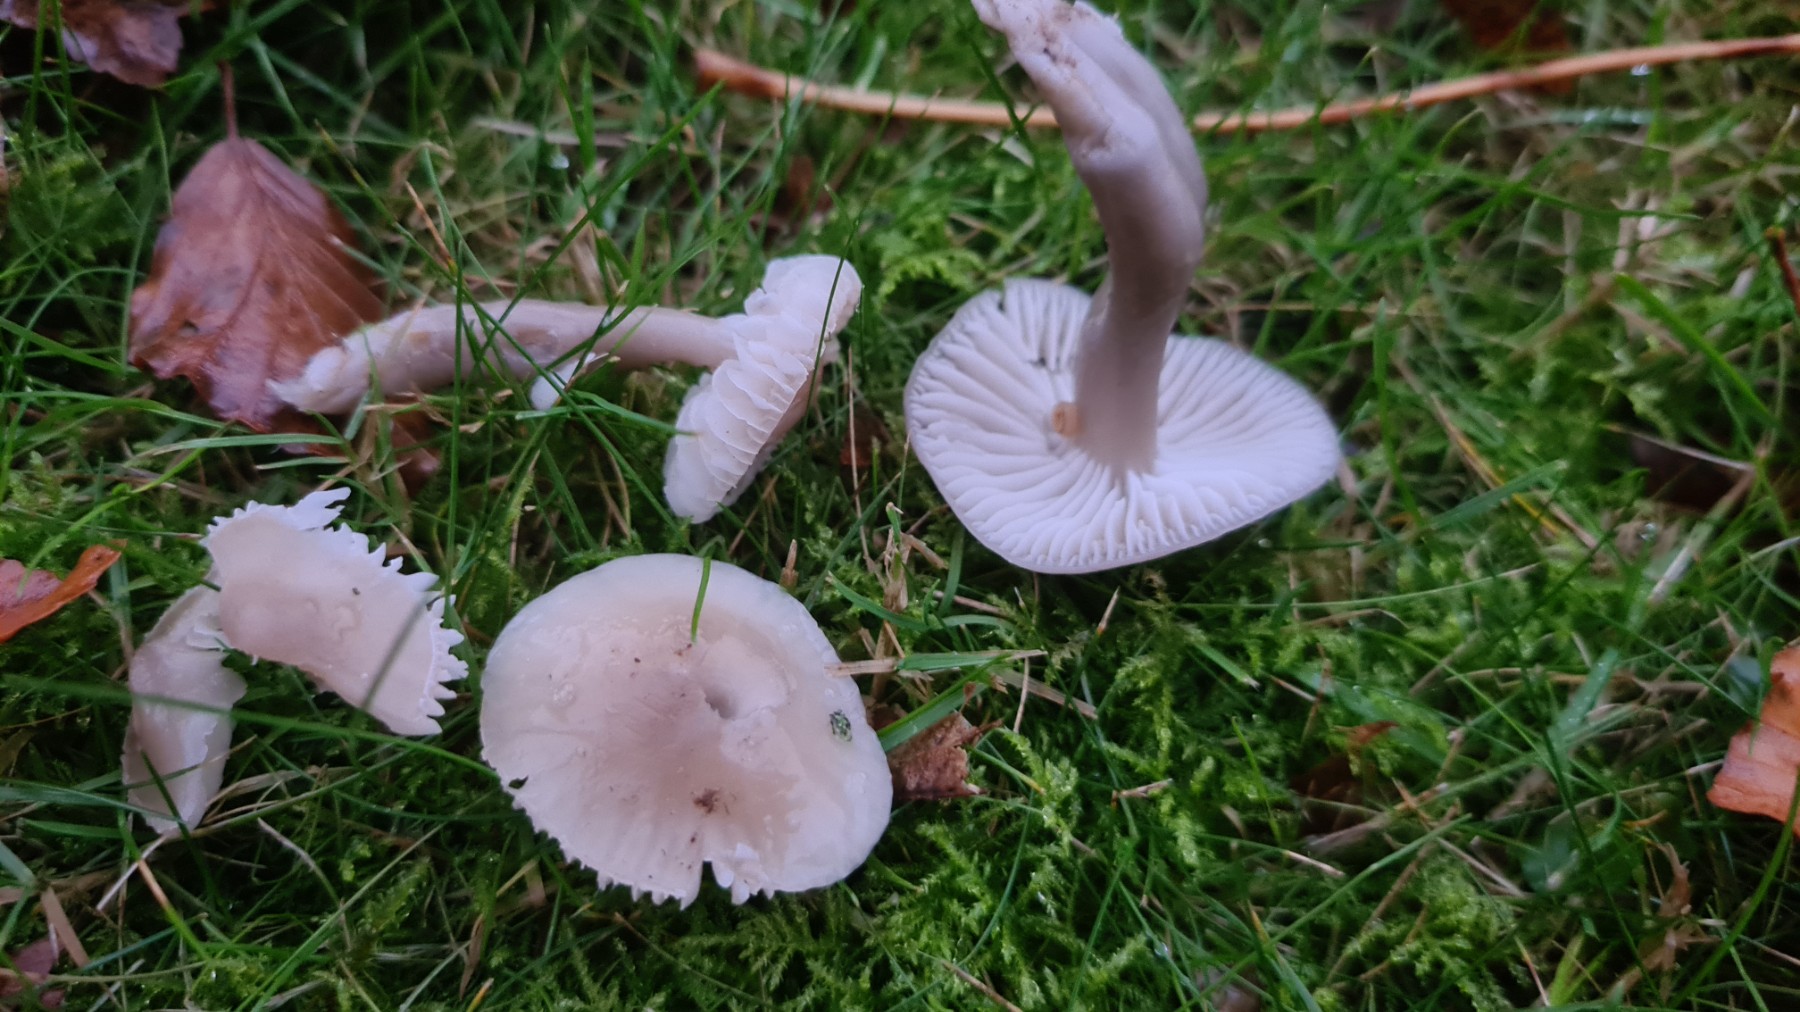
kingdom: Fungi
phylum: Basidiomycota
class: Agaricomycetes
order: Agaricales
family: Hygrophoraceae
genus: Gliophorus
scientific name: Gliophorus irrigatus
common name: slimet vokshat
